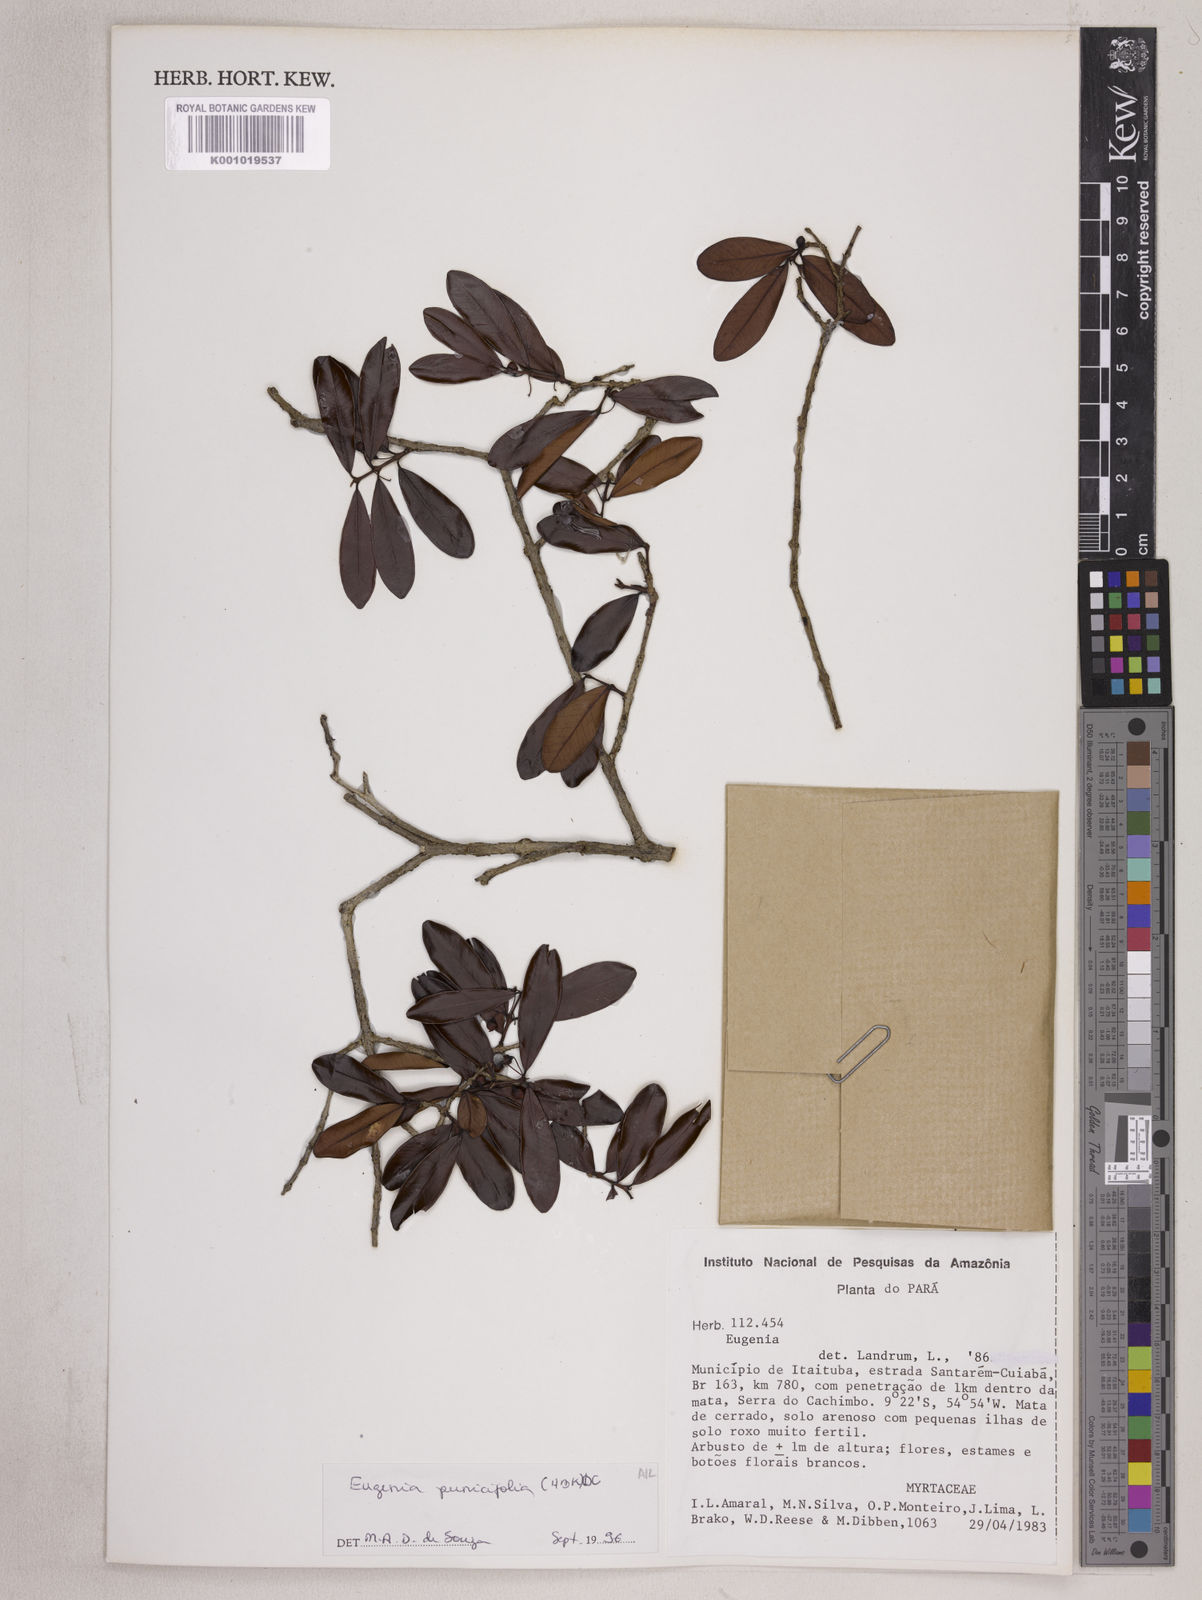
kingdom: Plantae
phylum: Tracheophyta
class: Magnoliopsida
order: Myrtales
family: Myrtaceae
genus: Eugenia
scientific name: Eugenia punicifolia
